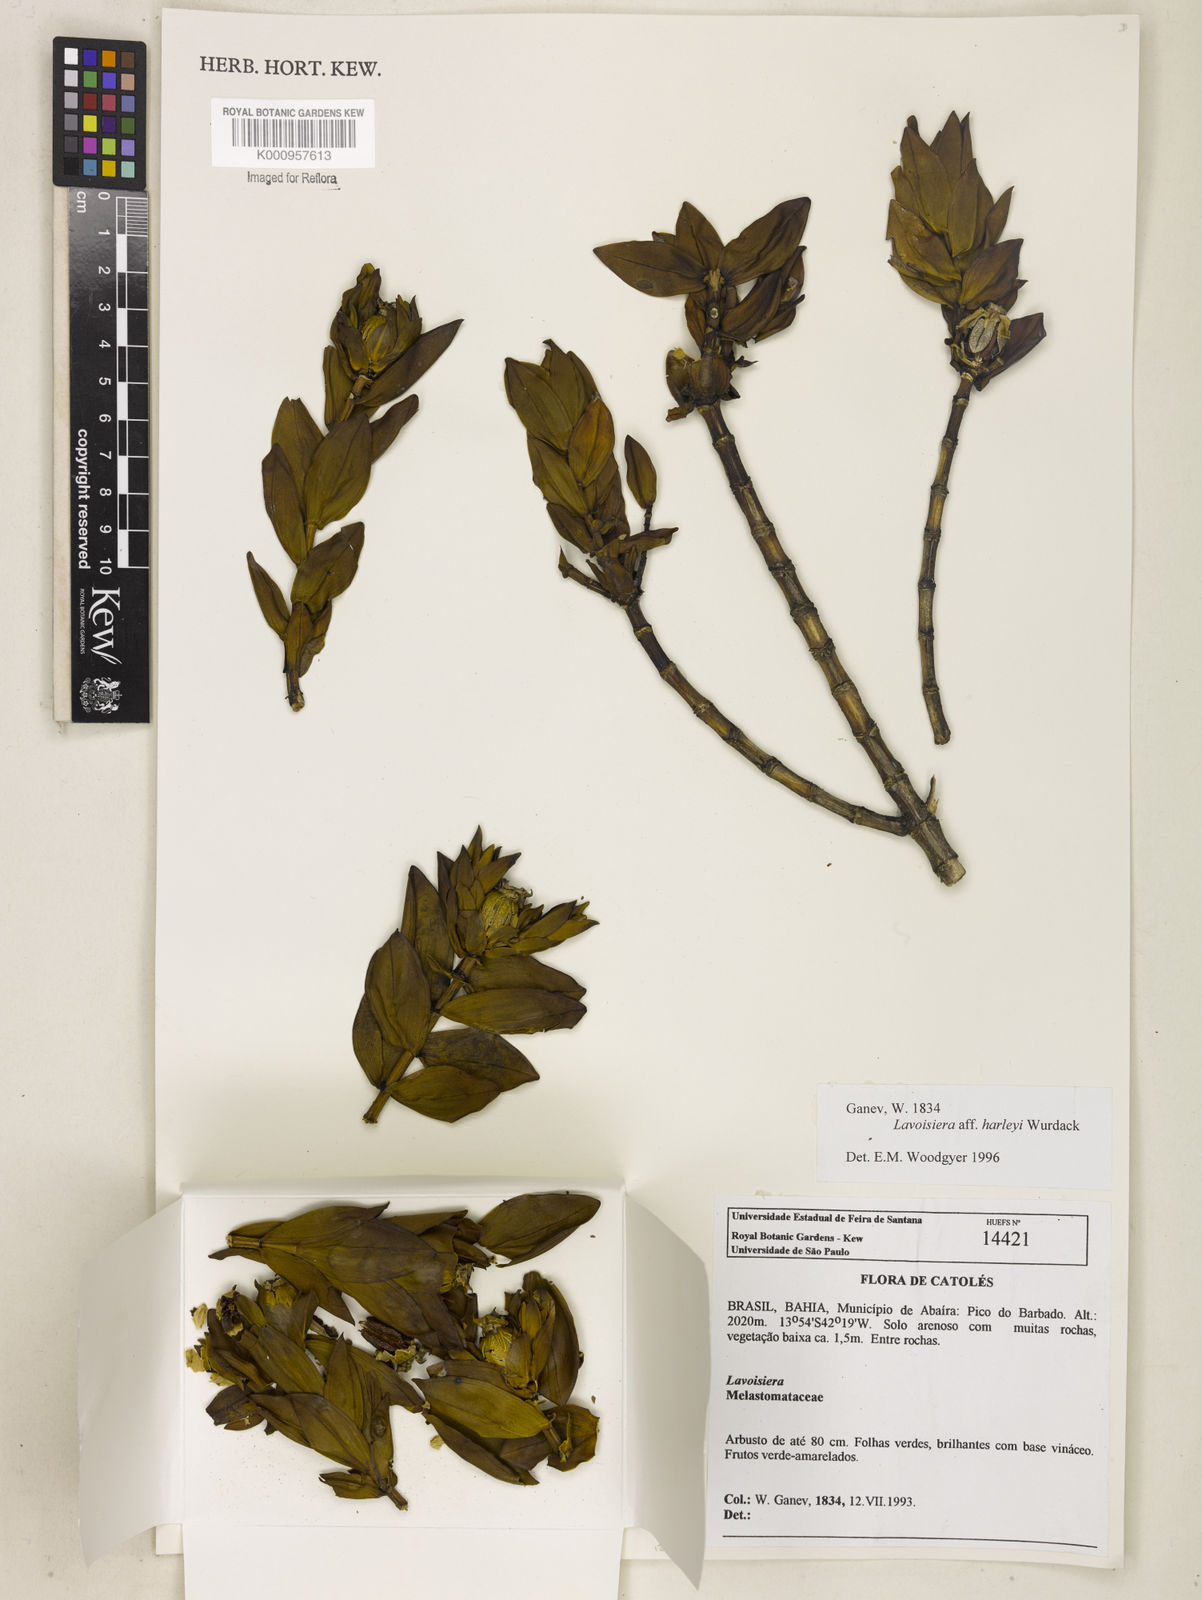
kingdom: Plantae
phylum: Tracheophyta
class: Magnoliopsida
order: Myrtales
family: Melastomataceae
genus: Microlicia
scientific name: Microlicia raymondii
